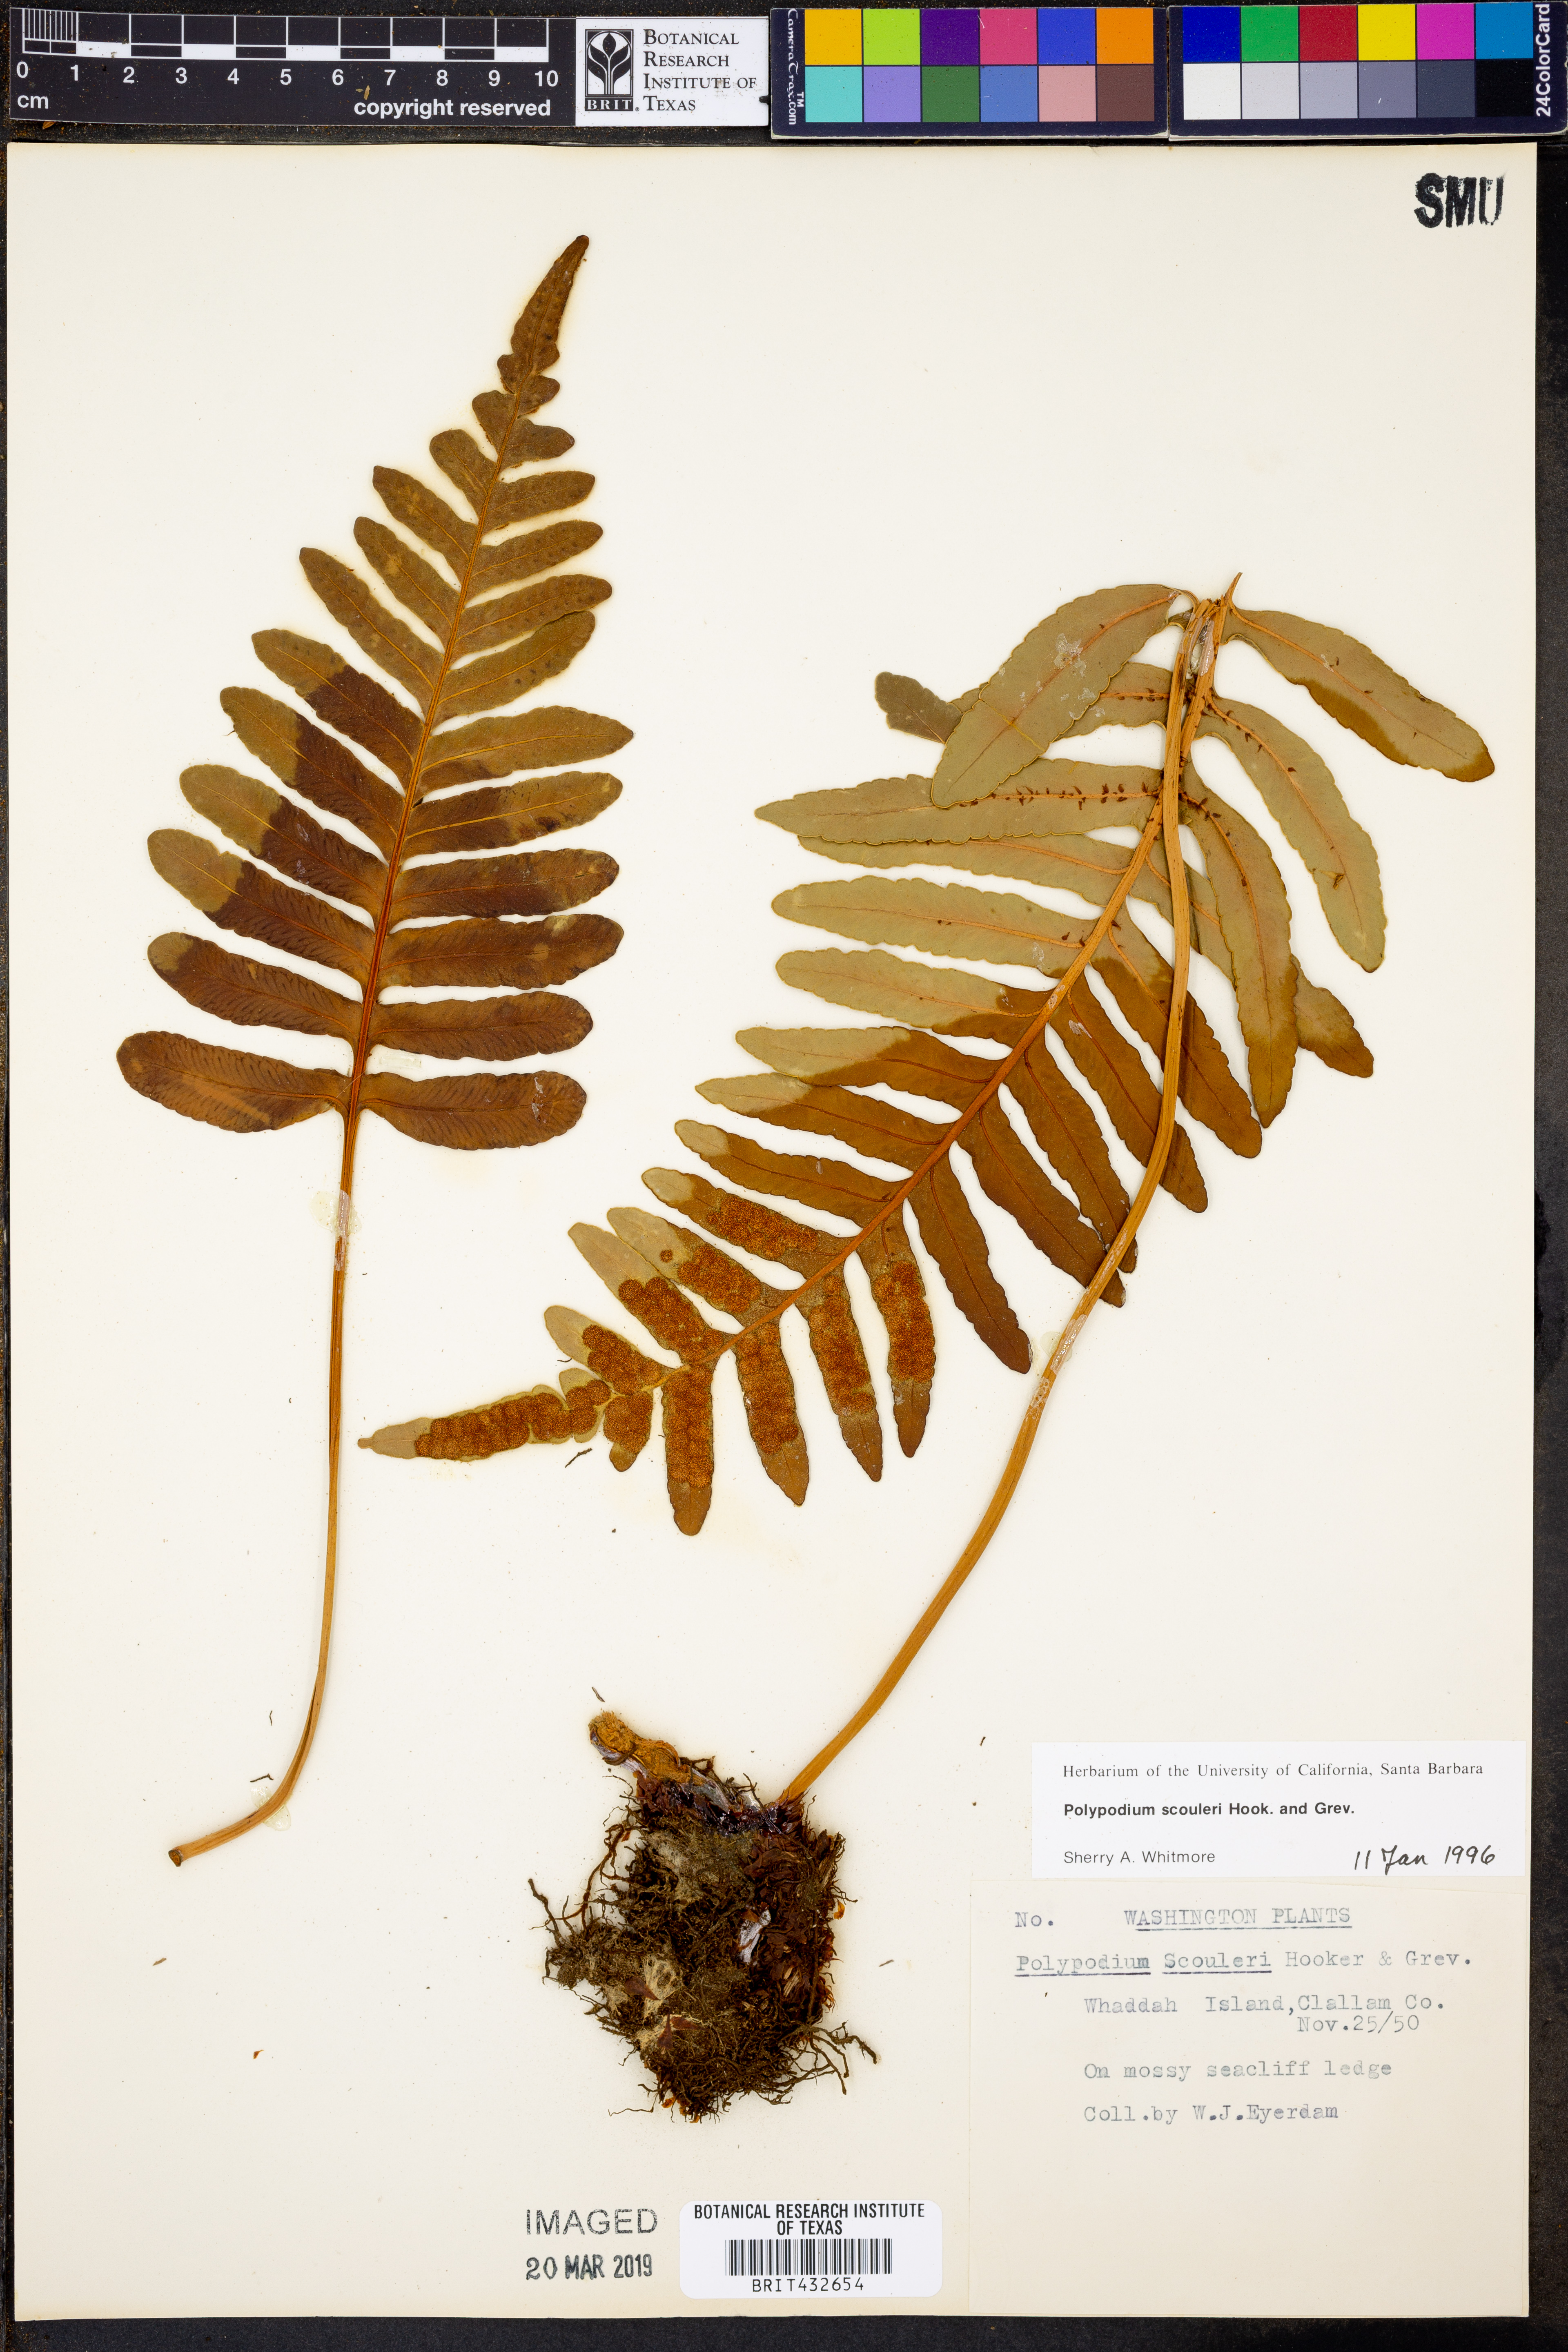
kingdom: Plantae
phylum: Tracheophyta
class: Polypodiopsida
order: Polypodiales
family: Polypodiaceae
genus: Polypodium
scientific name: Polypodium scouleri
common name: Scouler's polypody
